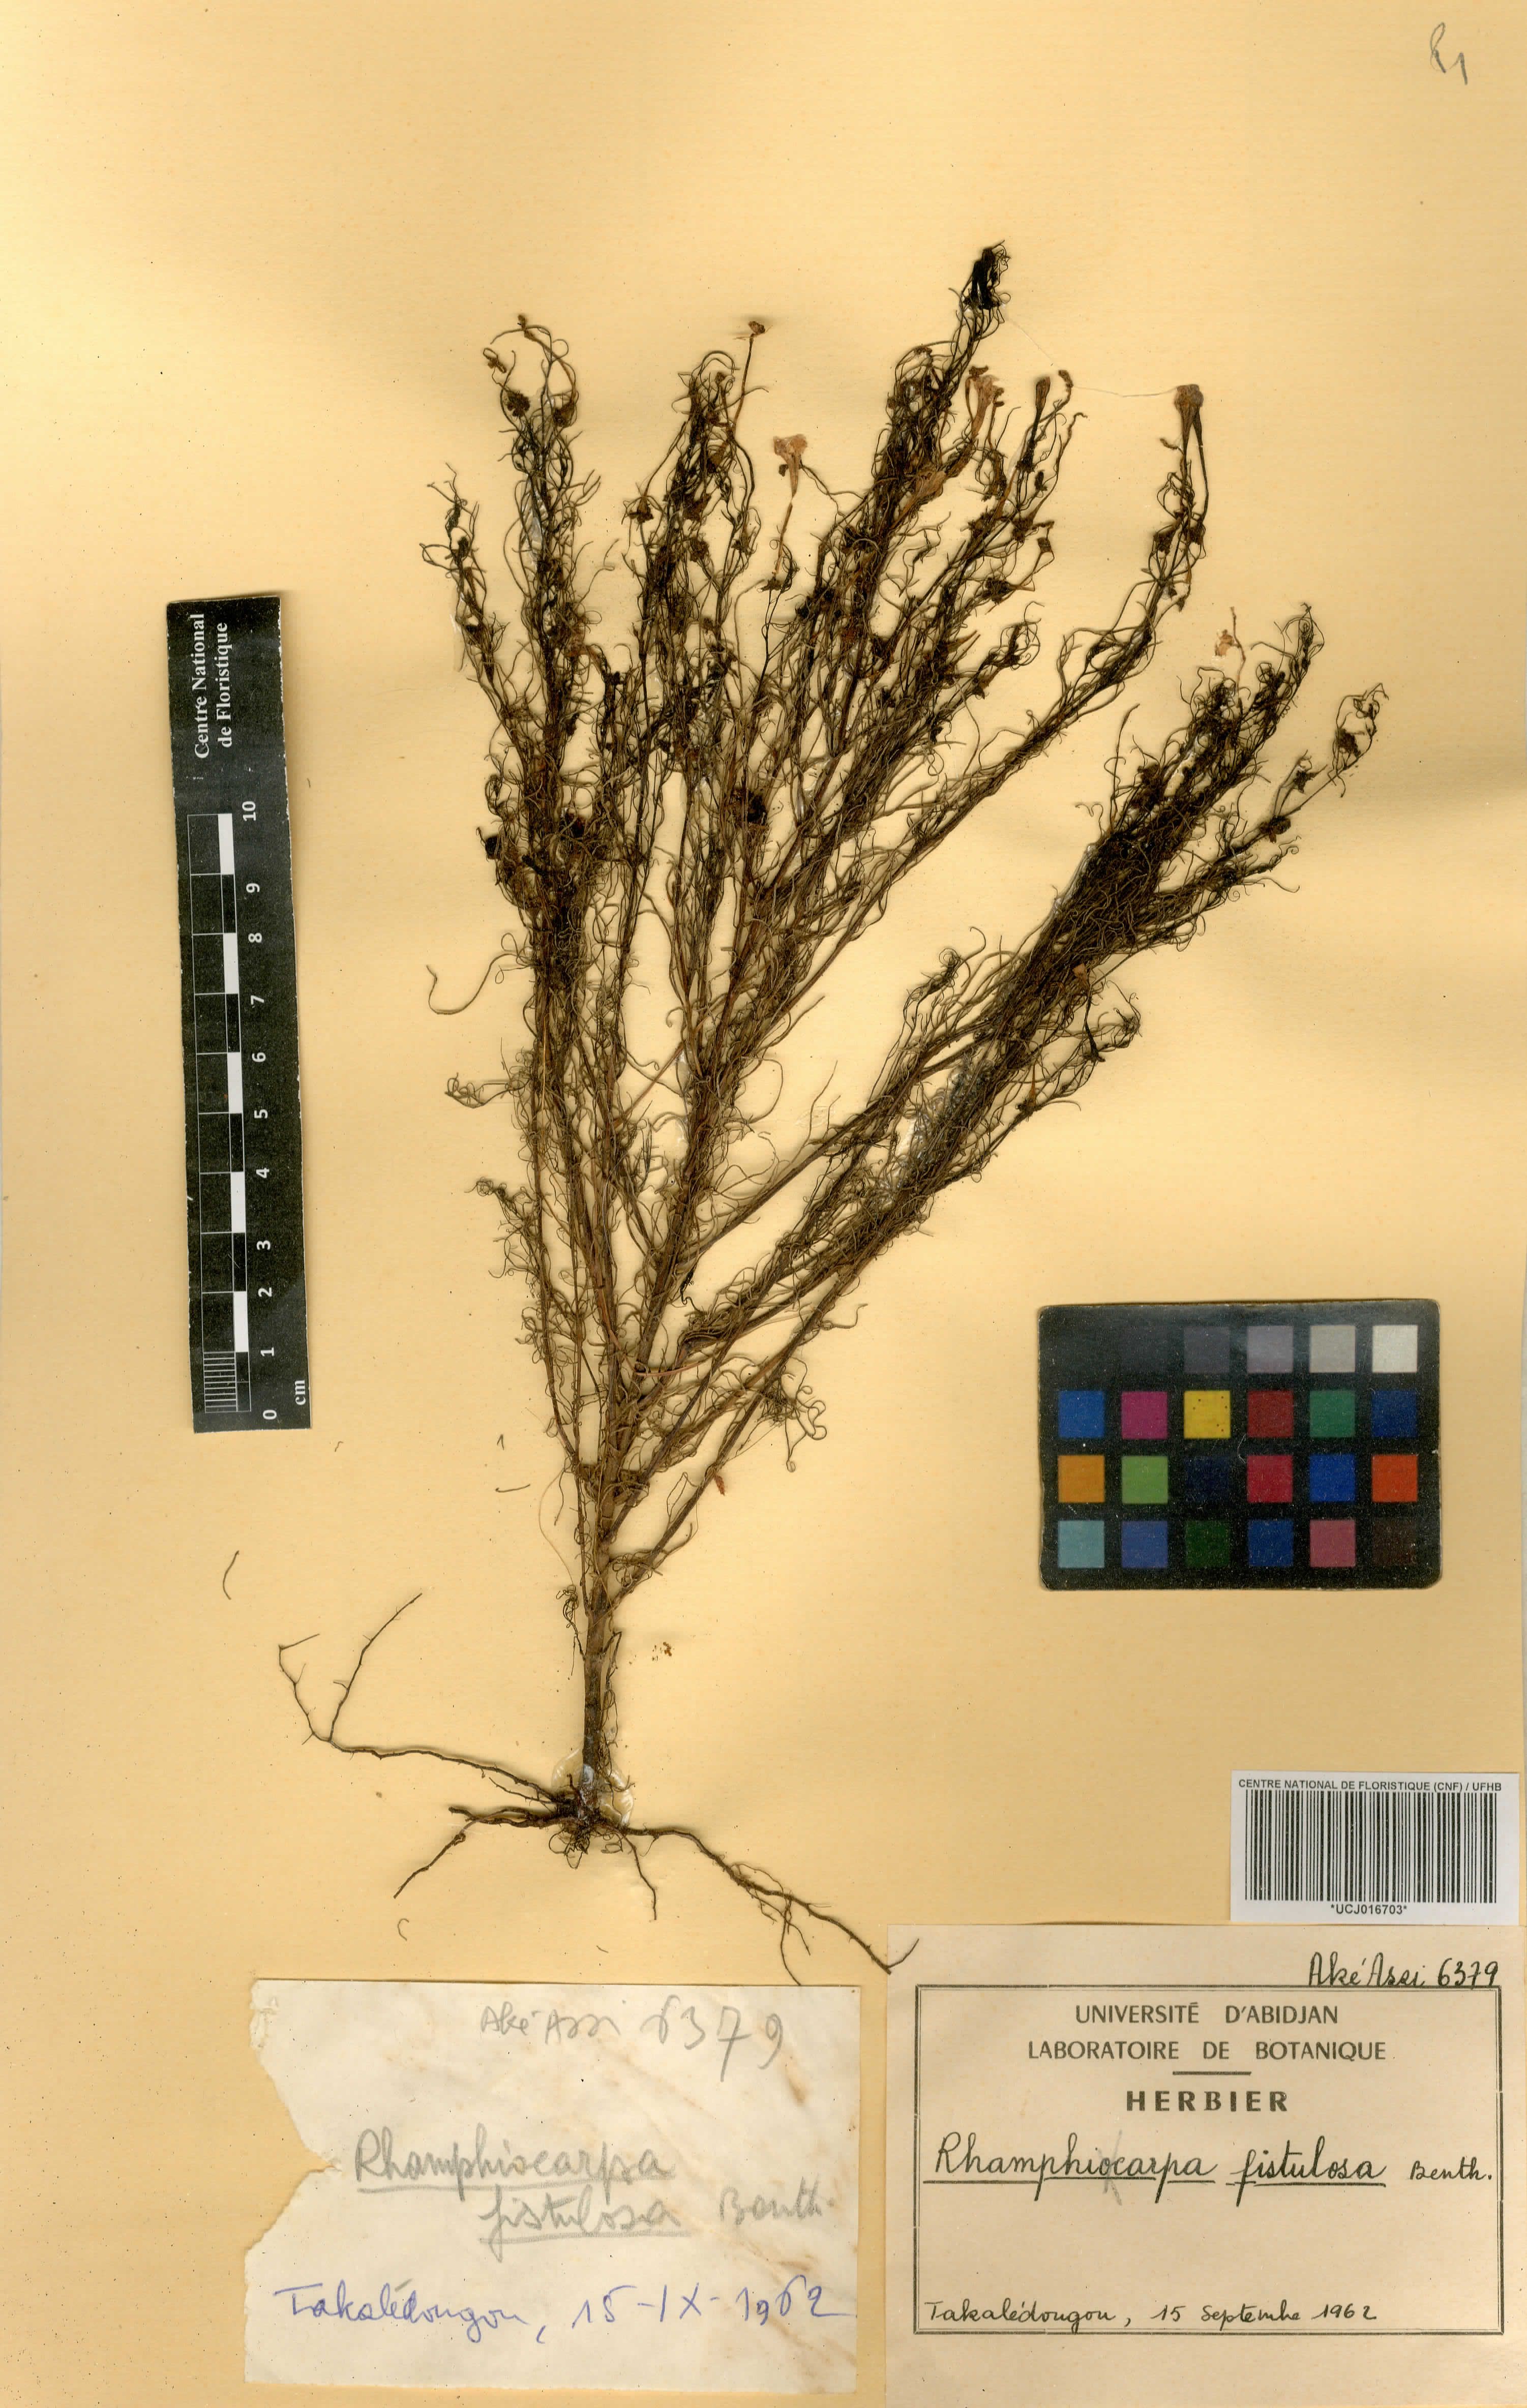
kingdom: Plantae
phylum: Tracheophyta
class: Magnoliopsida
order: Lamiales
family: Orobanchaceae
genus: Rhamphicarpa
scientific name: Rhamphicarpa fistulosa
